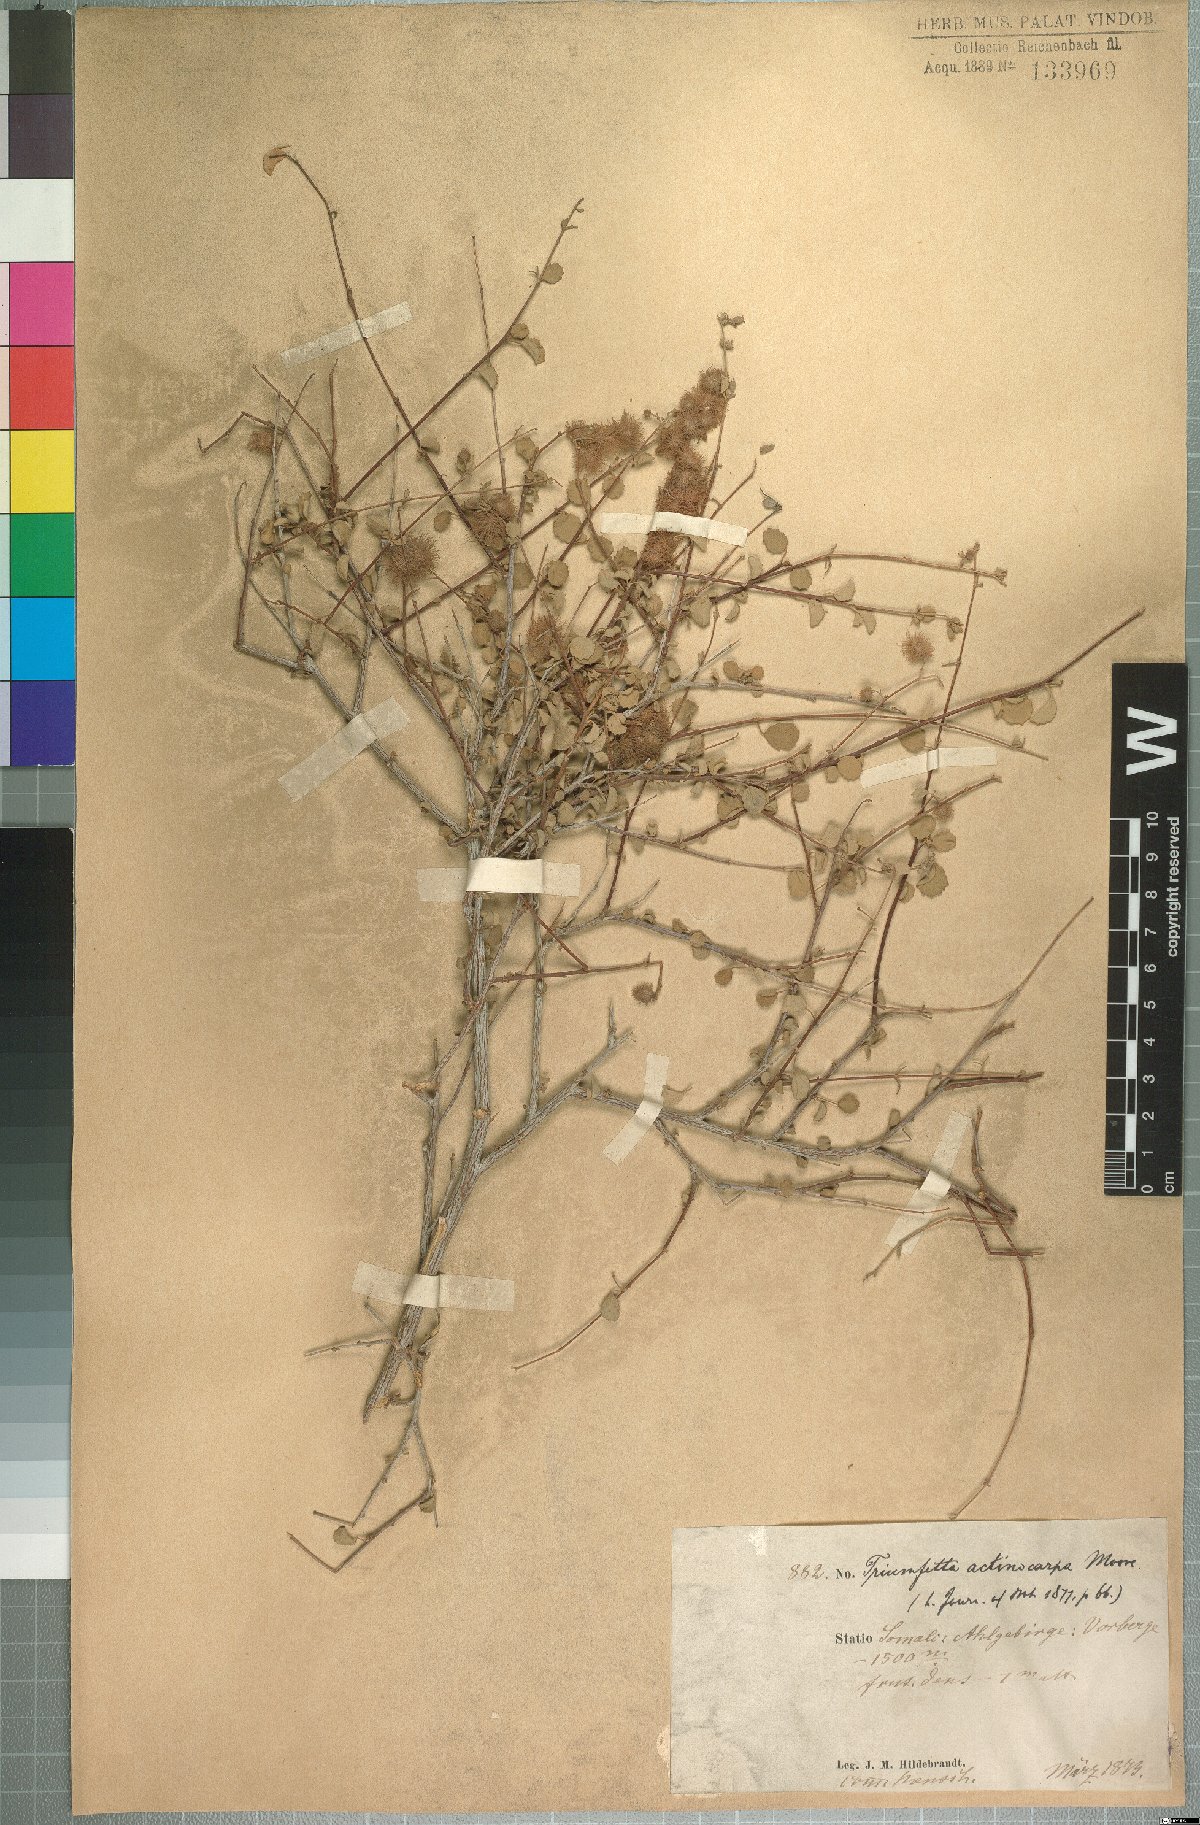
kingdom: Plantae
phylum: Tracheophyta
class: Magnoliopsida
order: Malvales
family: Malvaceae
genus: Triumfetta
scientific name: Triumfetta actinocarpa
